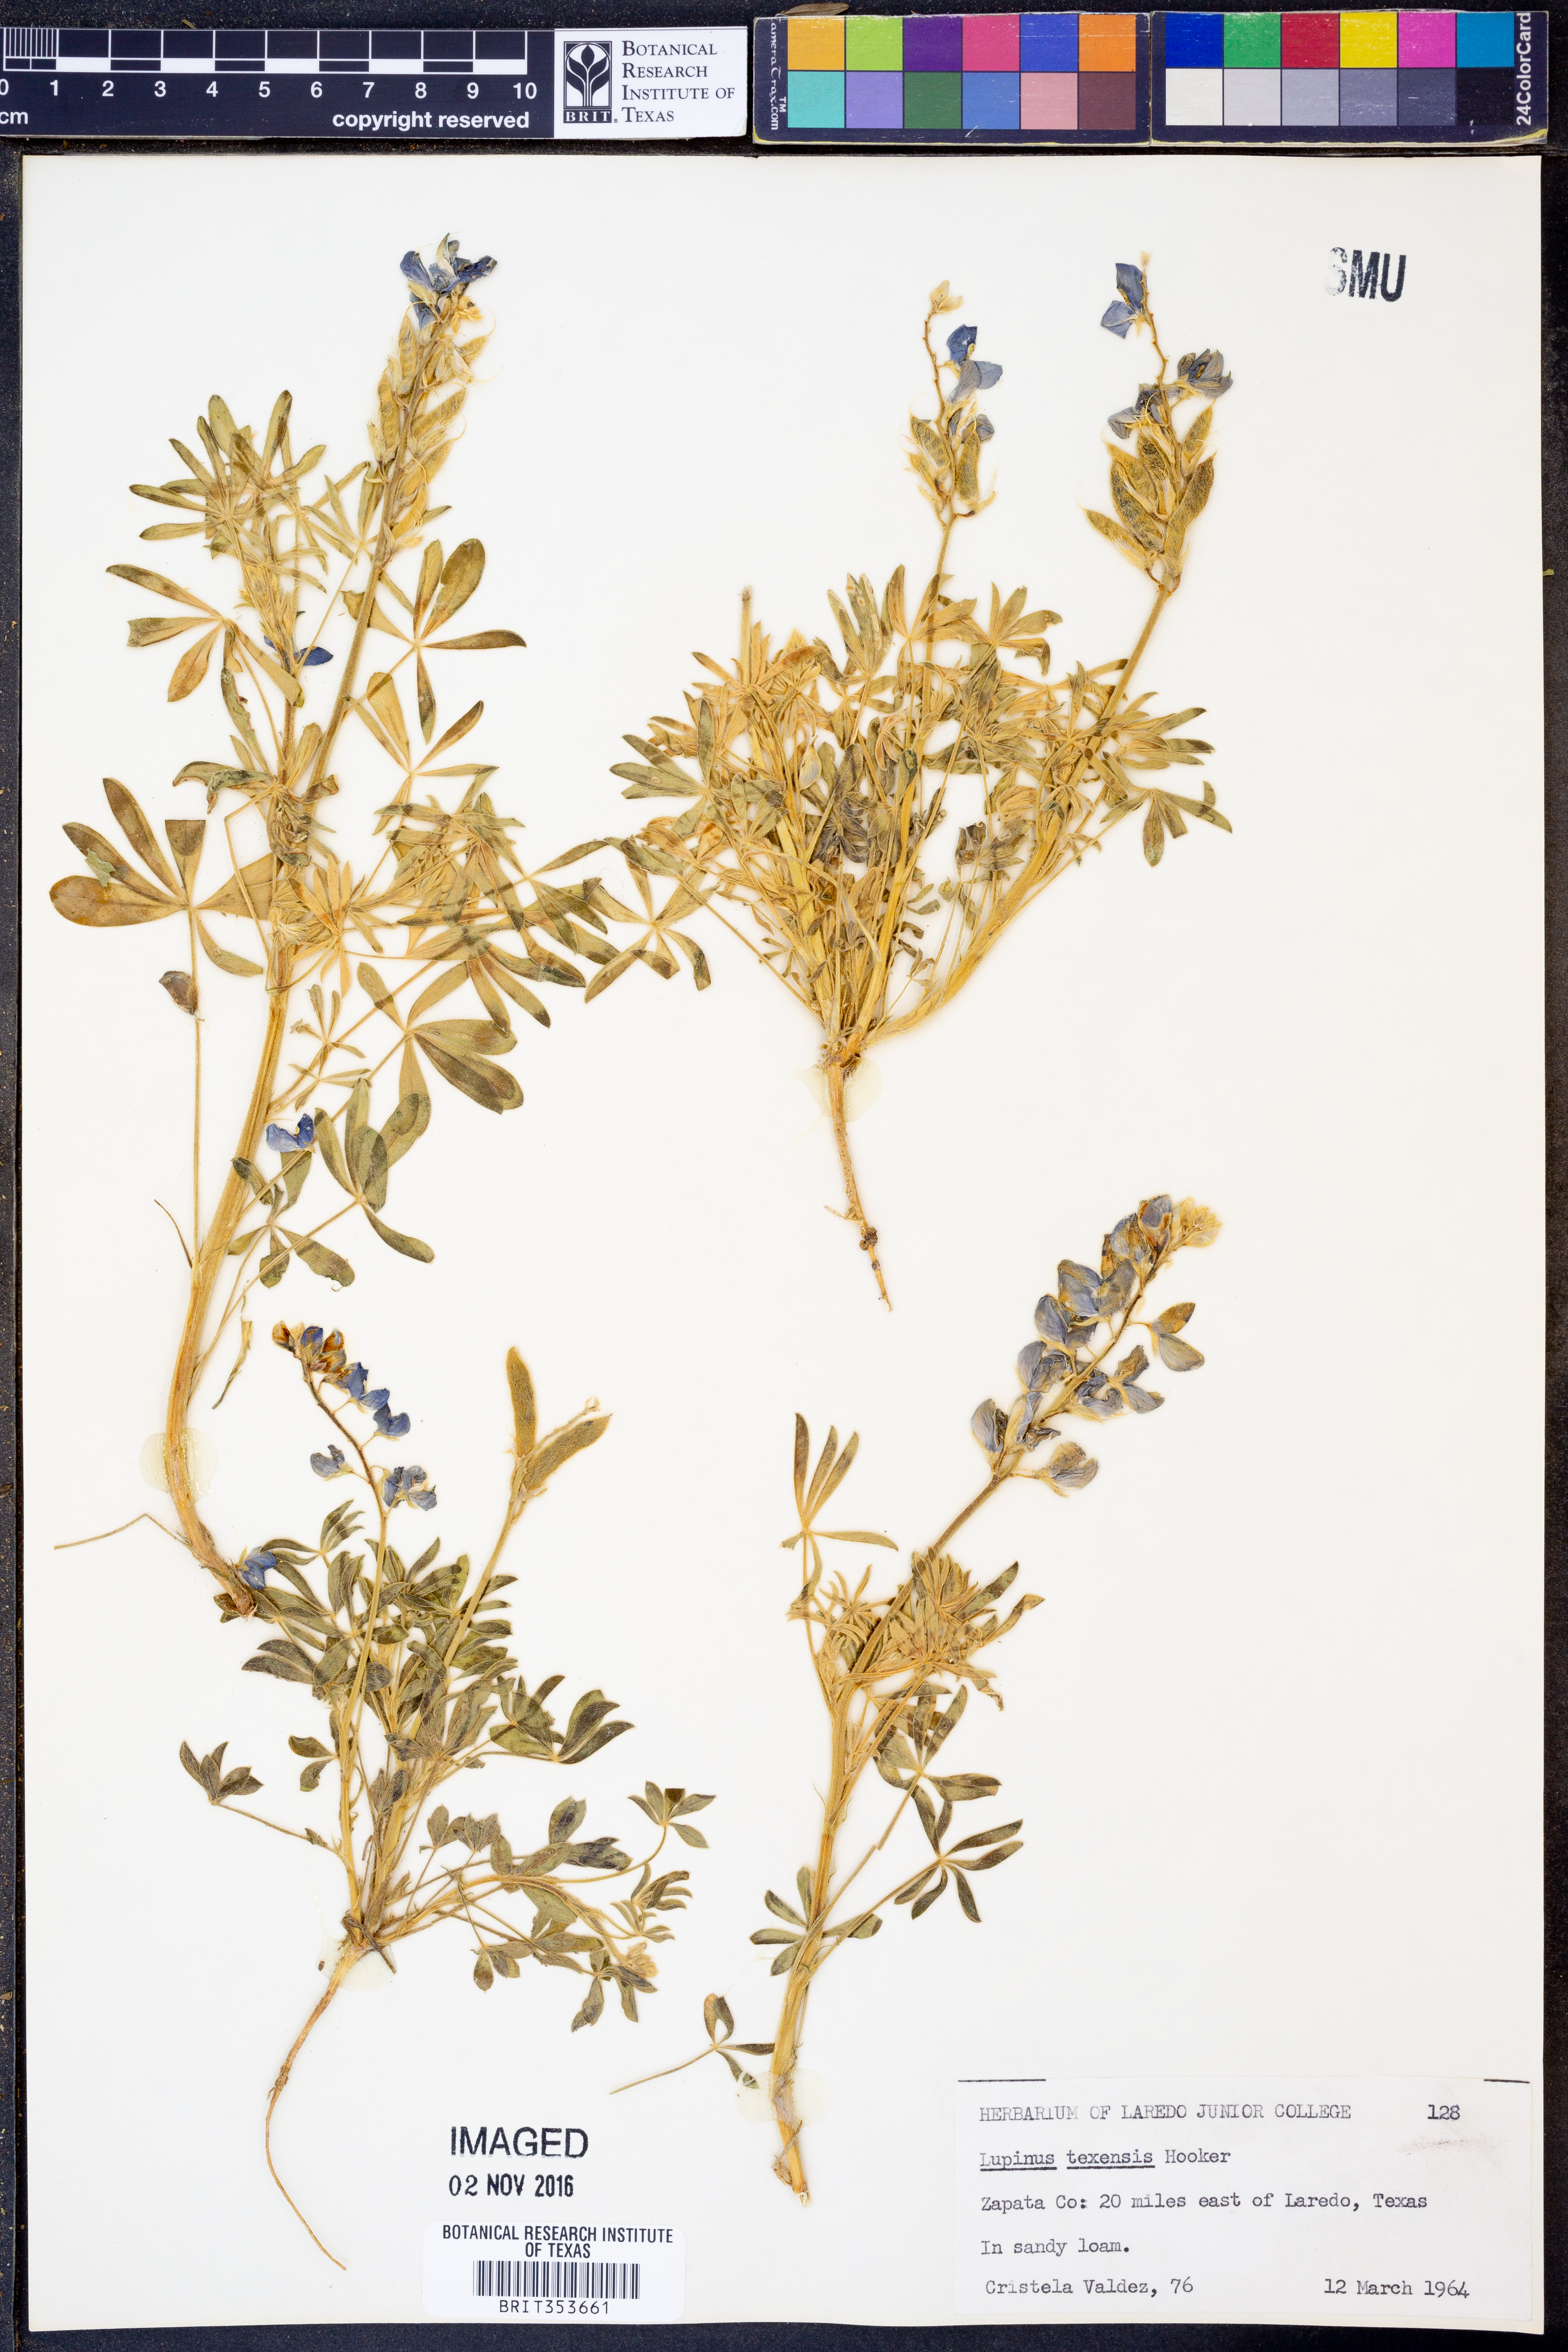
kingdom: Plantae
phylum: Tracheophyta
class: Magnoliopsida
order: Fabales
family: Fabaceae
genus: Lupinus
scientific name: Lupinus texensis
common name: Texas bluebonnet
